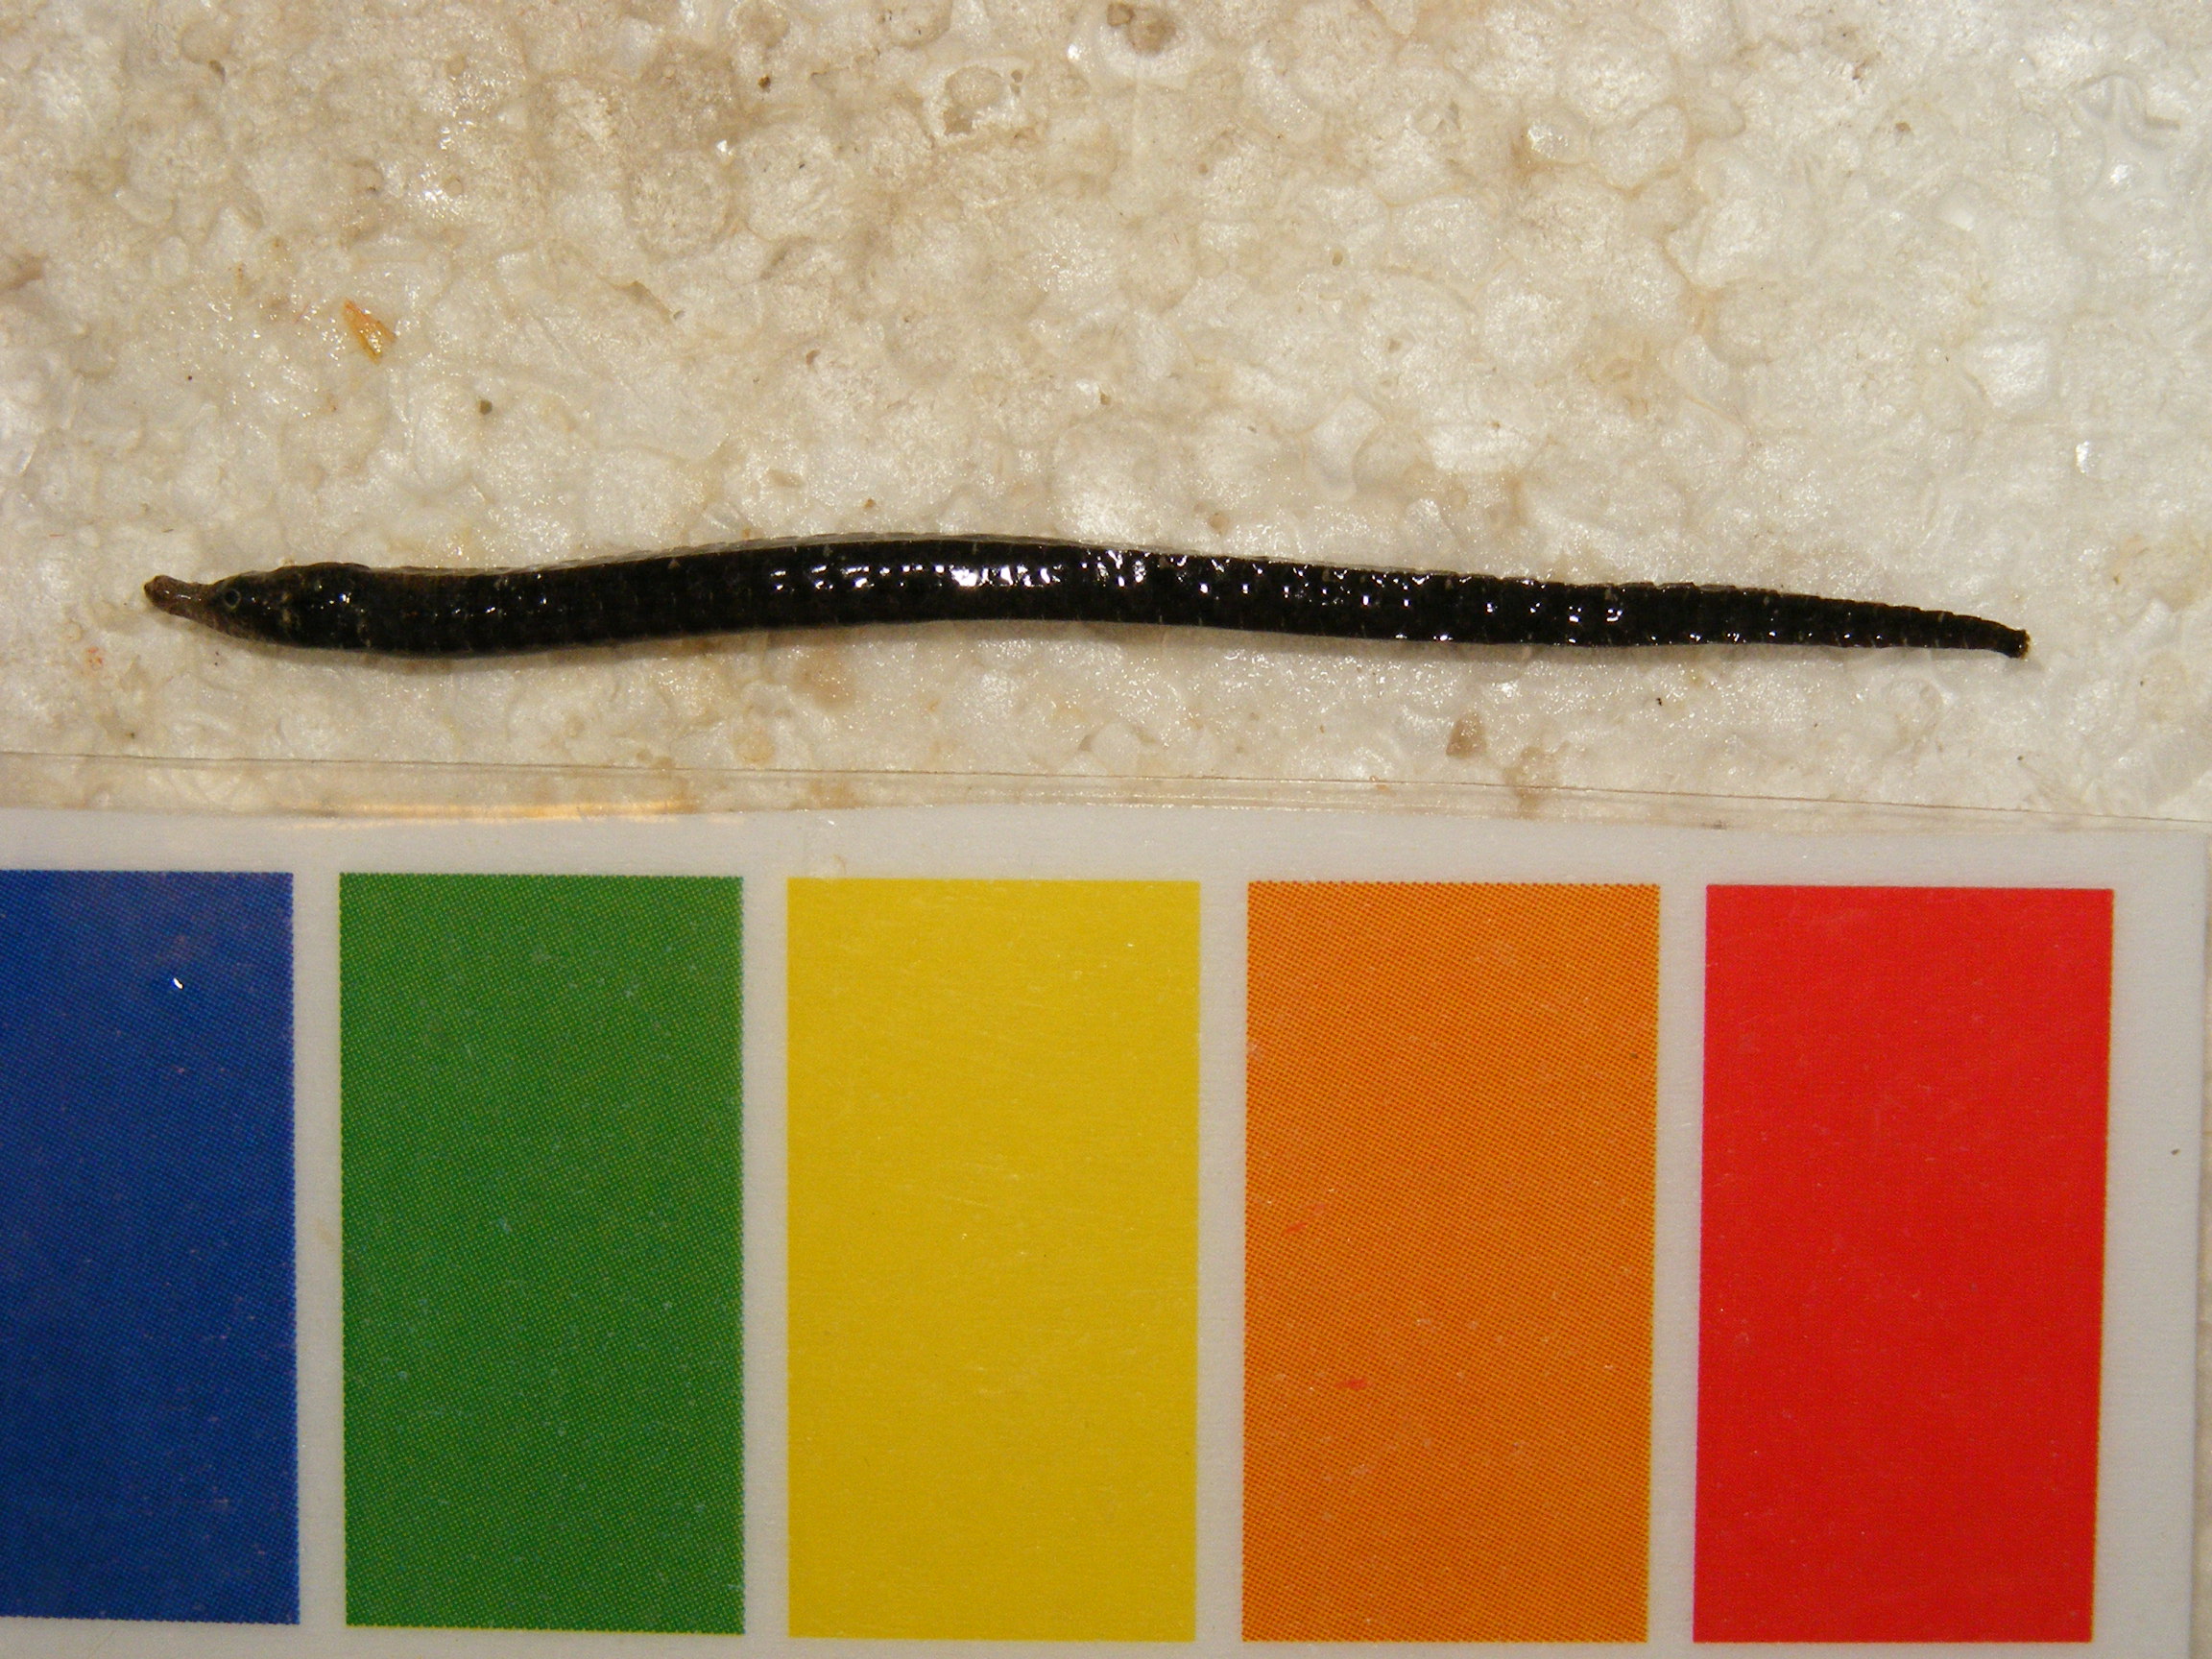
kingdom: Animalia
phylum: Chordata
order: Syngnathiformes
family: Syngnathidae
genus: Festucalex
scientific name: Festucalex erythraeus
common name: Red pipefish
